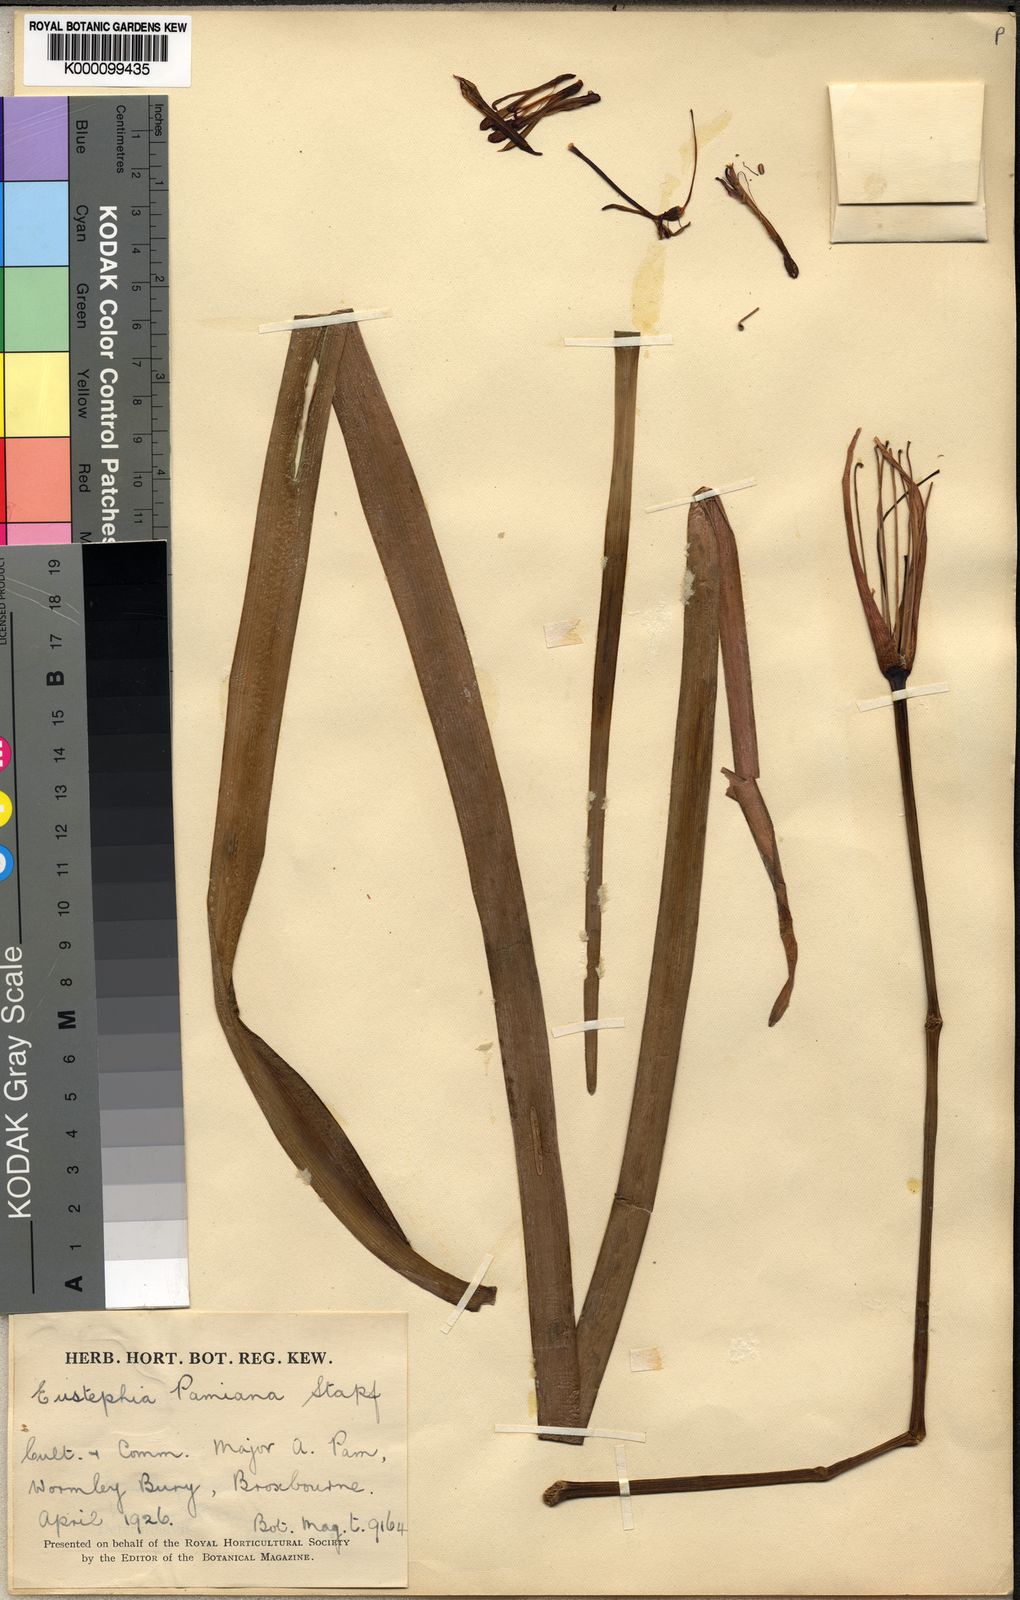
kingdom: Plantae
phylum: Tracheophyta
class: Liliopsida
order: Asparagales
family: Amaryllidaceae
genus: Hieronymiella
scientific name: Hieronymiella pamiana
